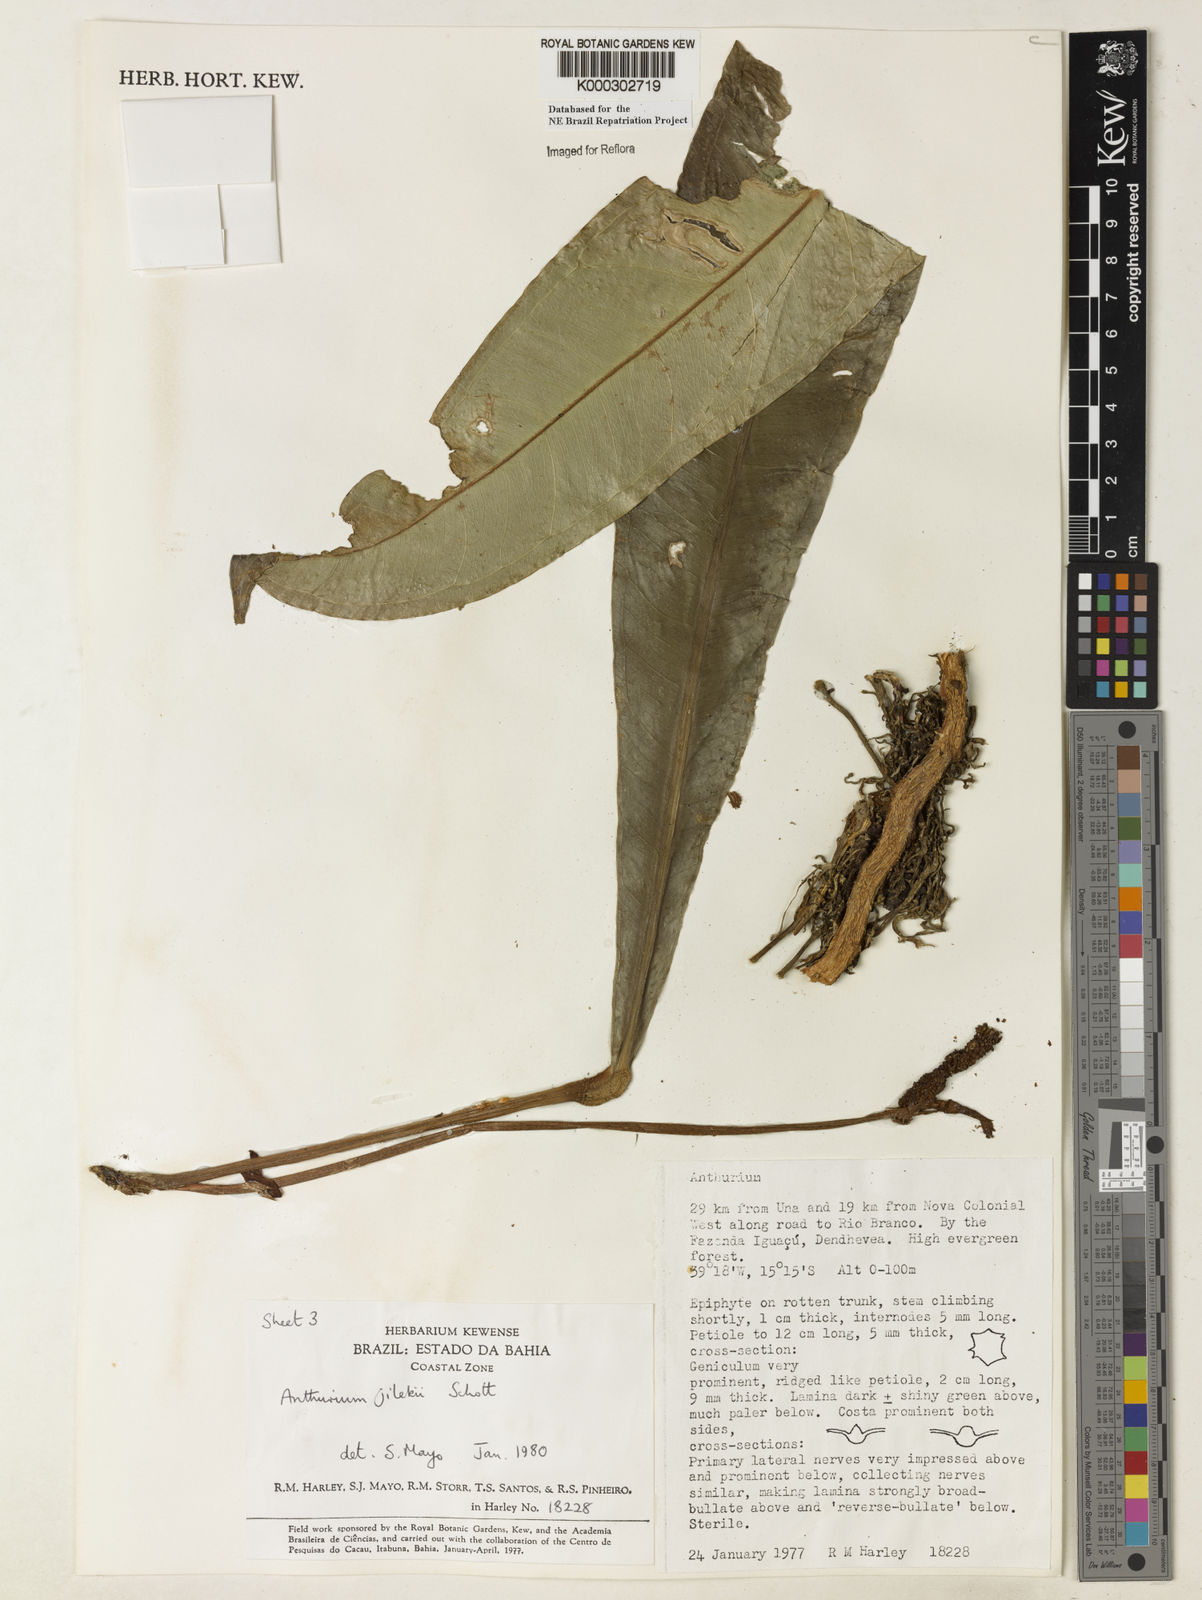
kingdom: Plantae
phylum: Tracheophyta
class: Liliopsida
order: Alismatales
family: Araceae
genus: Anthurium
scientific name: Anthurium jilekii
